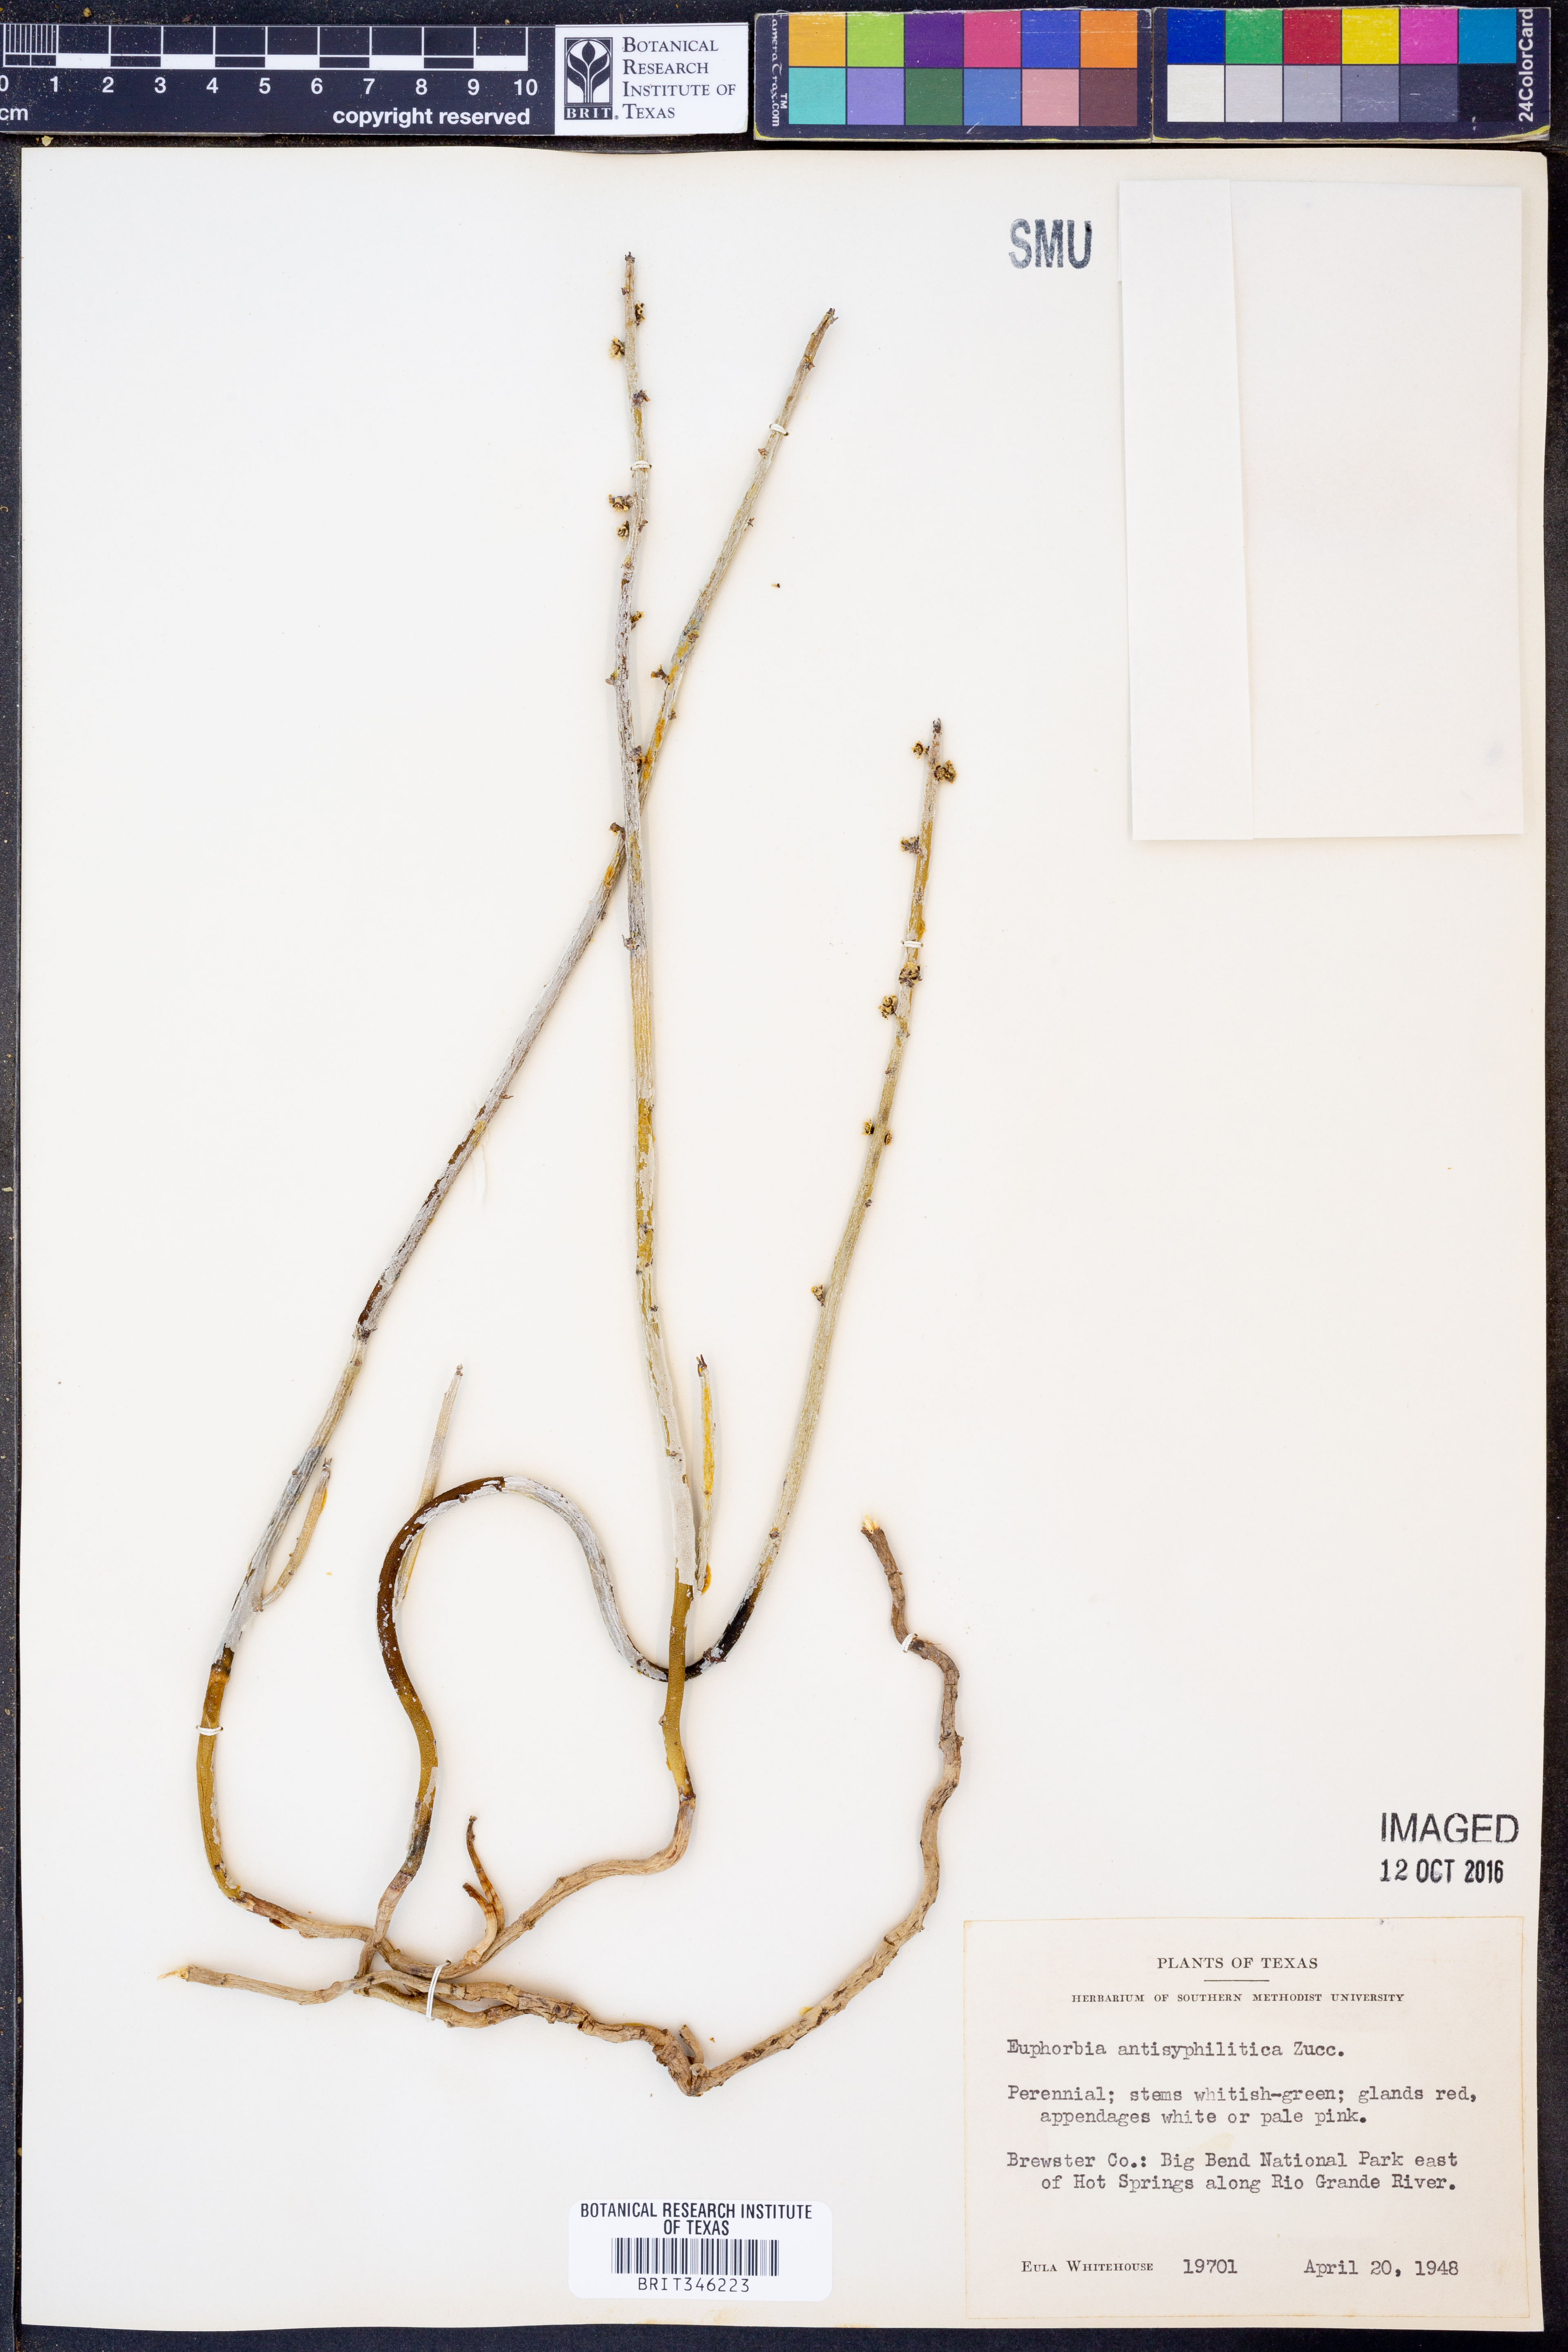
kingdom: Plantae
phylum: Tracheophyta
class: Magnoliopsida
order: Malpighiales
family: Euphorbiaceae
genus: Euphorbia
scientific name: Euphorbia antisyphilitica
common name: Candelilla
